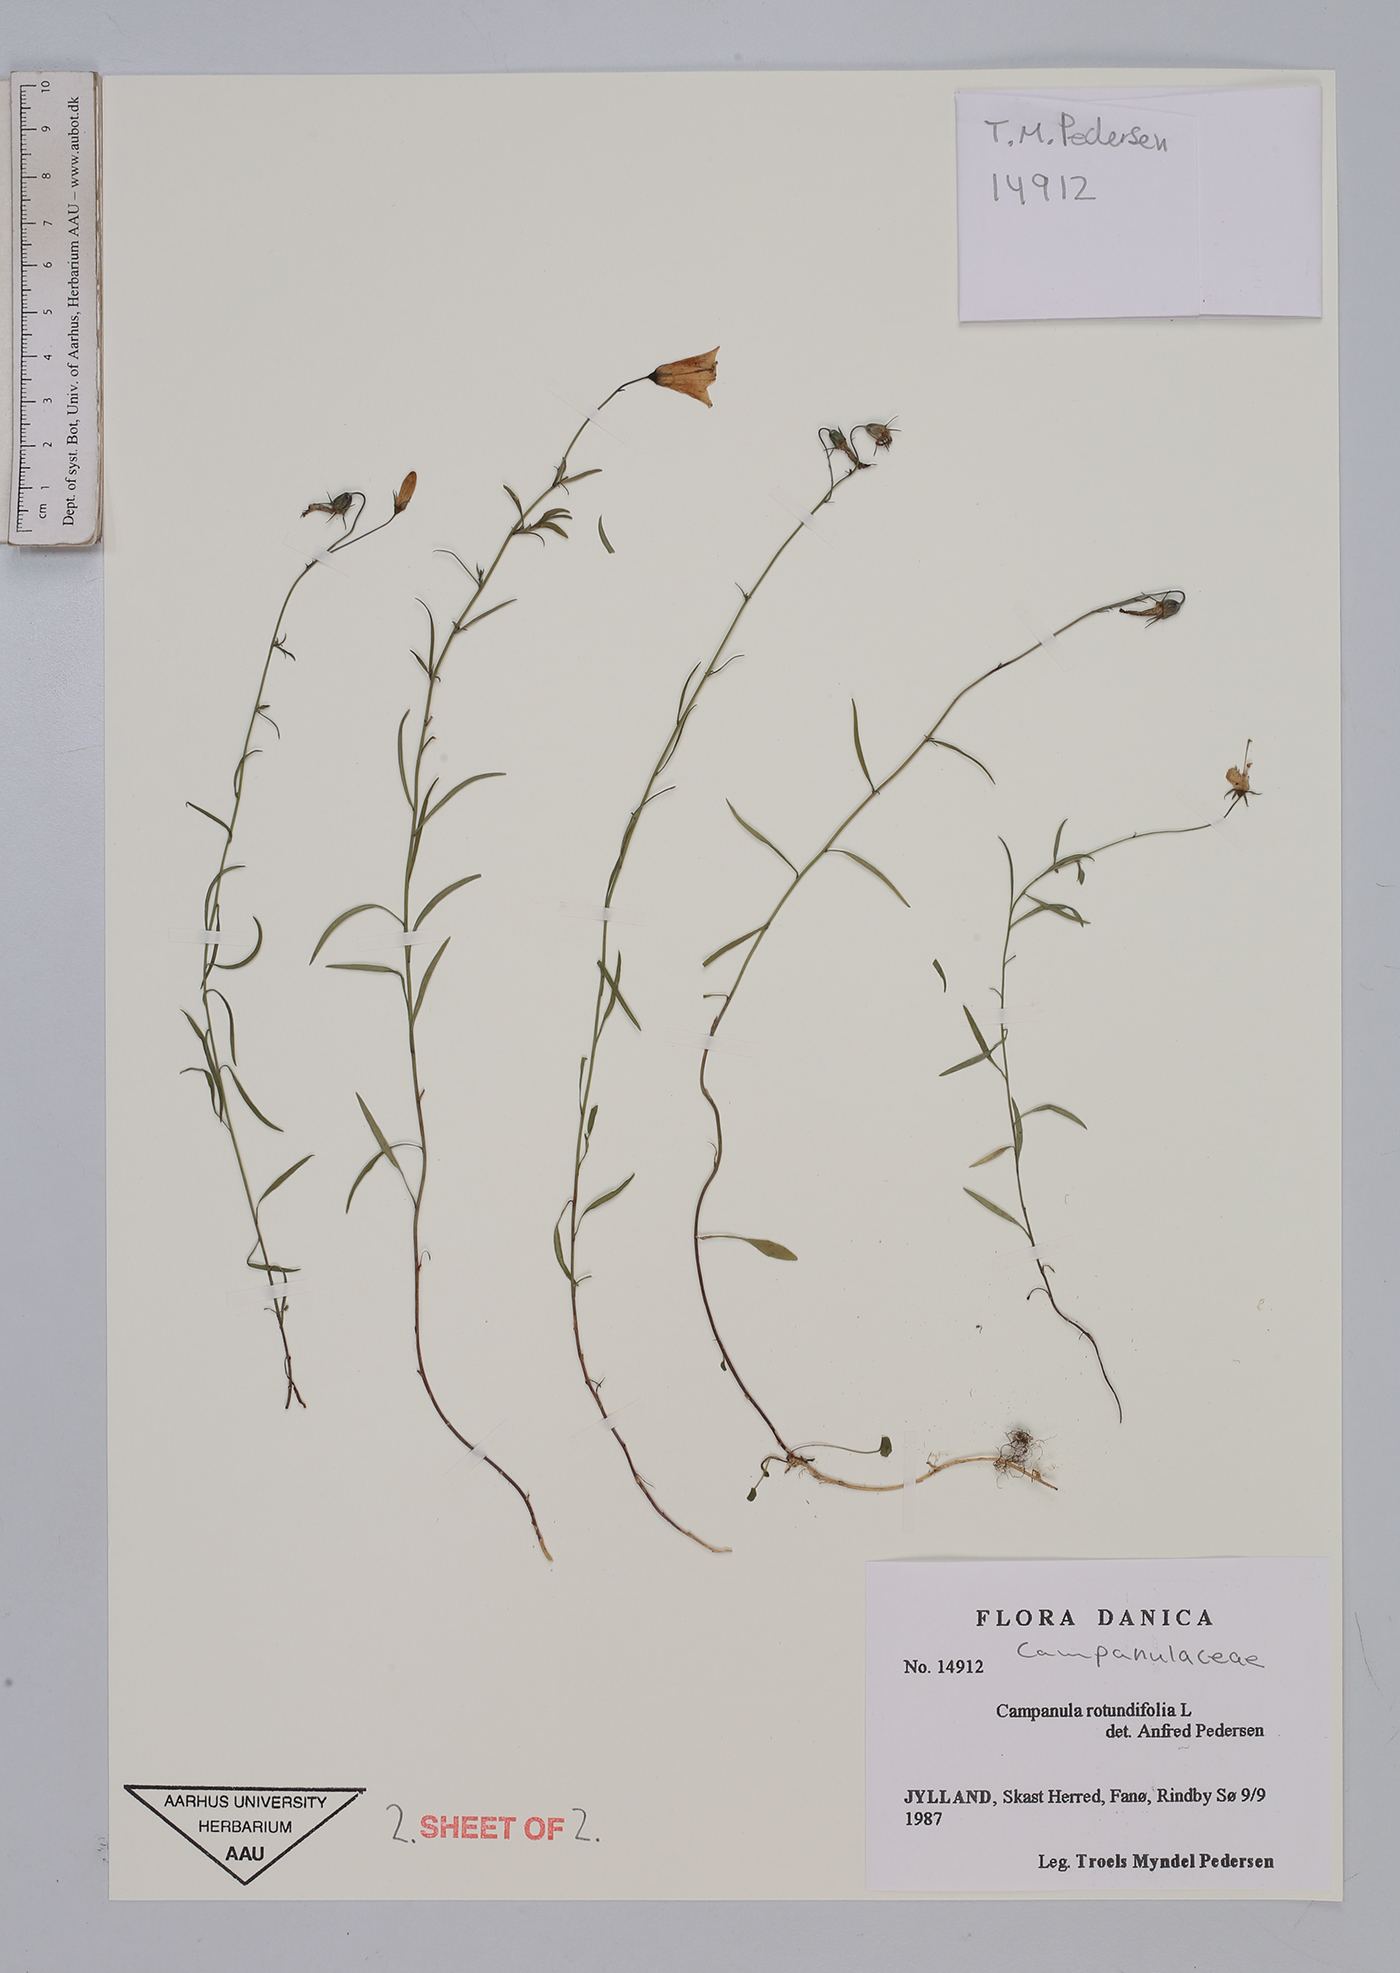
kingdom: Plantae
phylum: Tracheophyta
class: Magnoliopsida
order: Asterales
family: Campanulaceae
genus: Campanula
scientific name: Campanula rotundifolia
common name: Harebell
